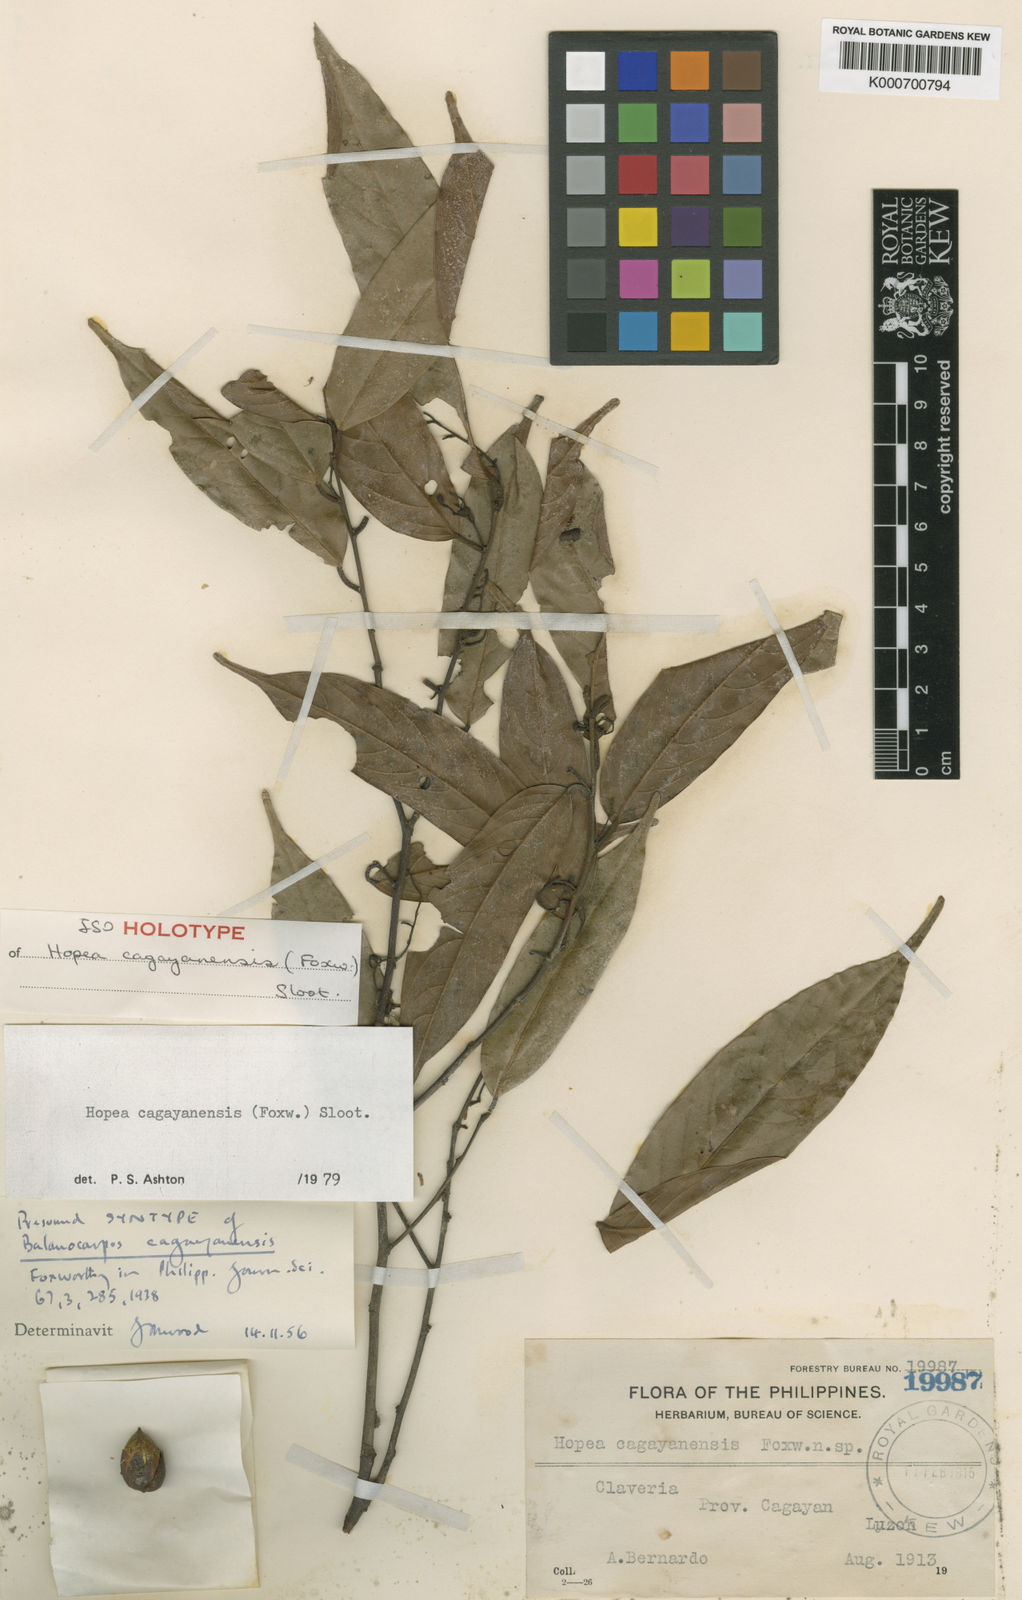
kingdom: Plantae
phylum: Tracheophyta
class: Magnoliopsida
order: Malvales
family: Dipterocarpaceae
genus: Hopea
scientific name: Hopea cagayanensis
